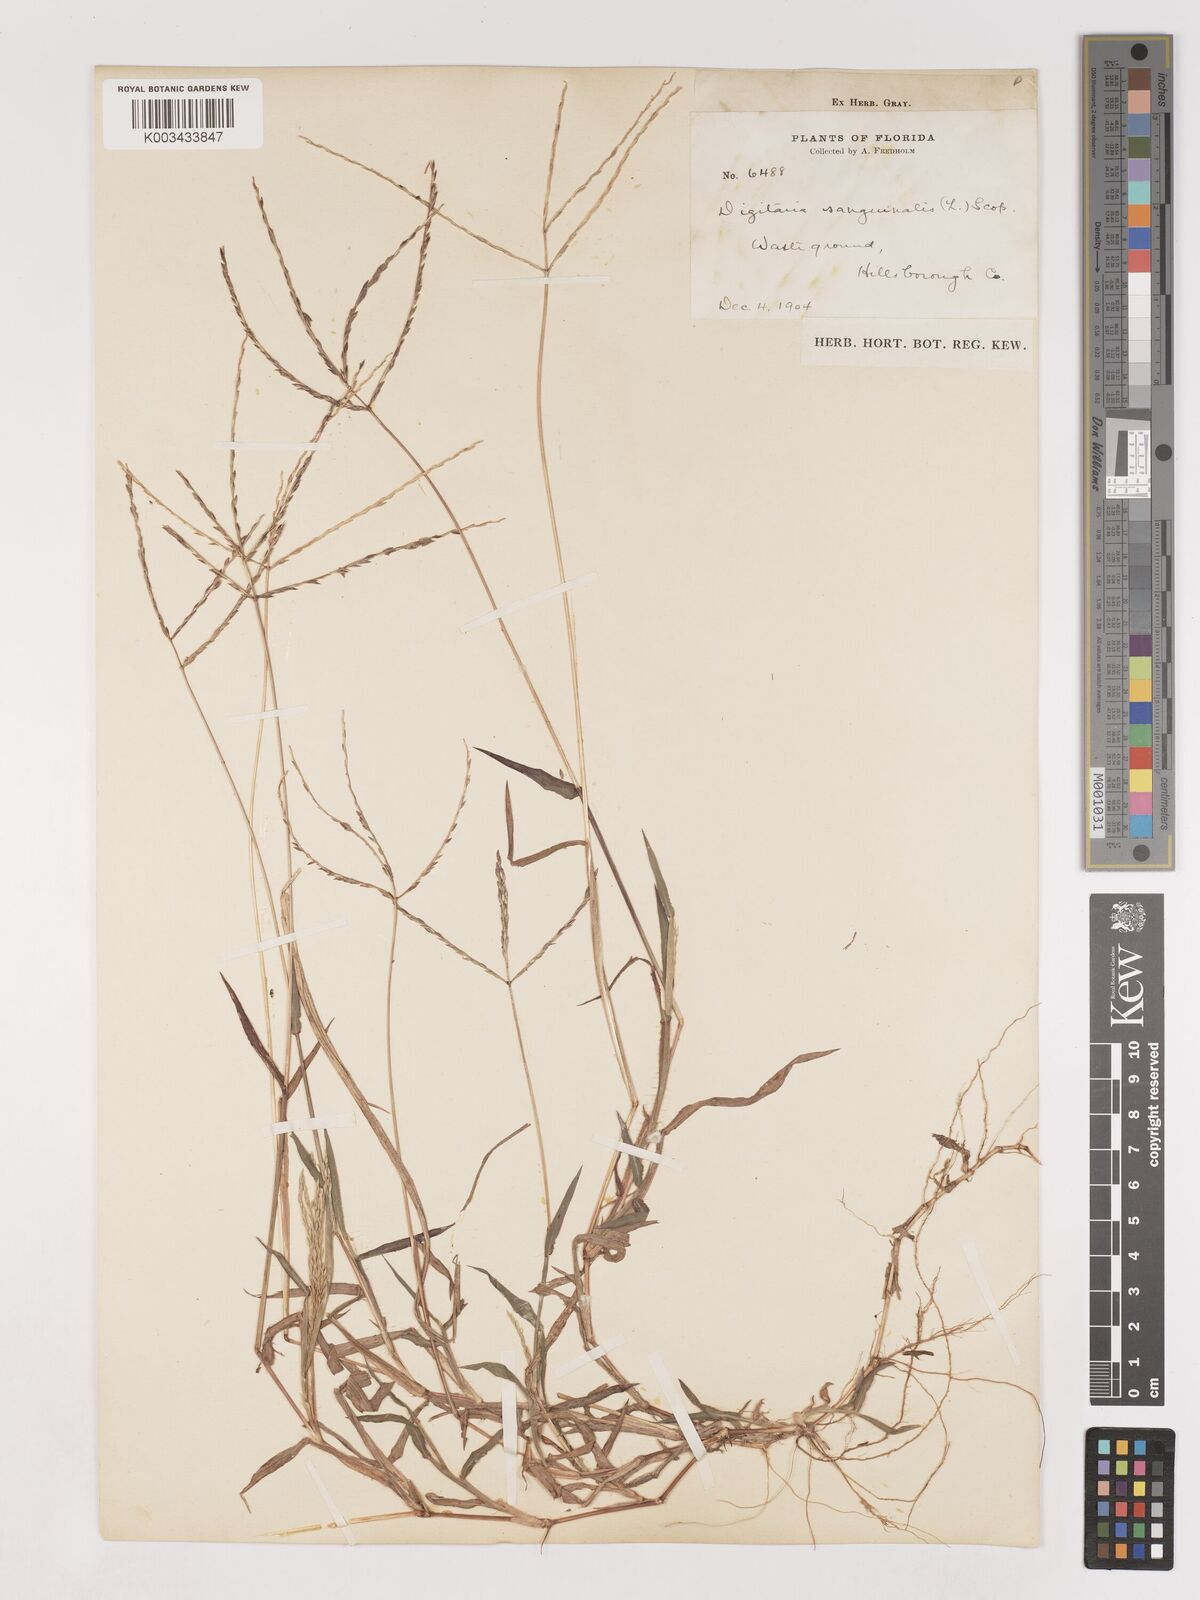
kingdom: Plantae
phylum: Tracheophyta
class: Liliopsida
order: Poales
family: Poaceae
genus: Digitaria
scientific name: Digitaria ciliaris
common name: Tropical finger-grass
